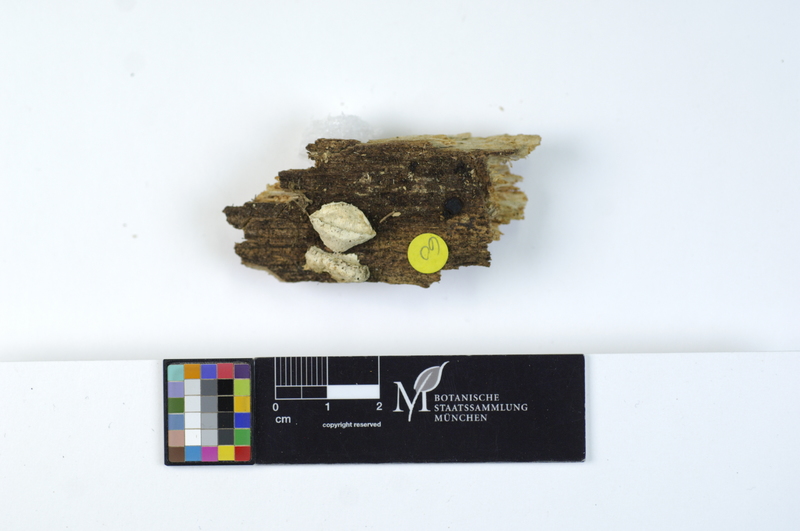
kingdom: Fungi
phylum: Basidiomycota
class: Agaricomycetes
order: Polyporales
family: Polyporaceae
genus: Cyanosporus
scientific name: Cyanosporus subcaesius
